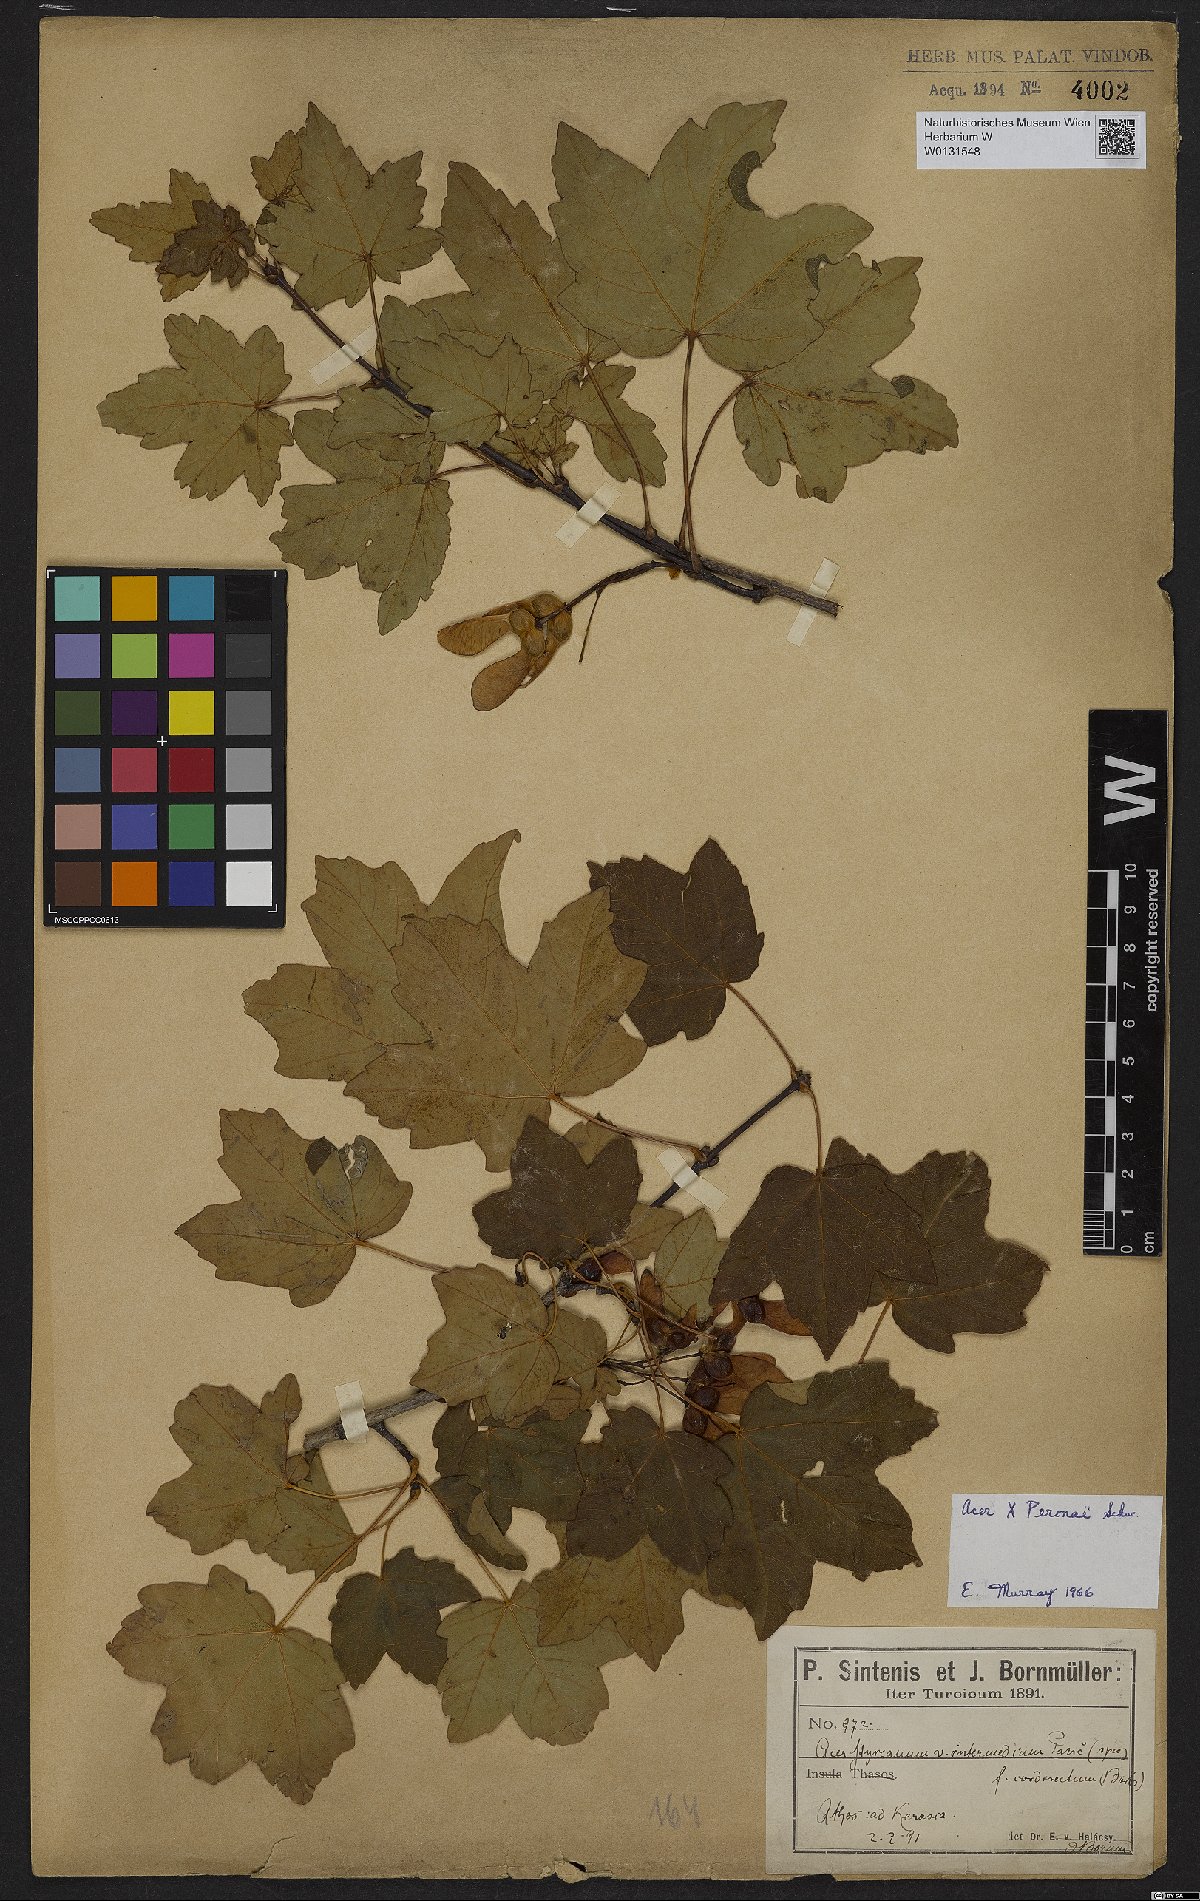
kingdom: Plantae
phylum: Tracheophyta
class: Magnoliopsida
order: Sapindales
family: Aceraceae
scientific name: Aceraceae
